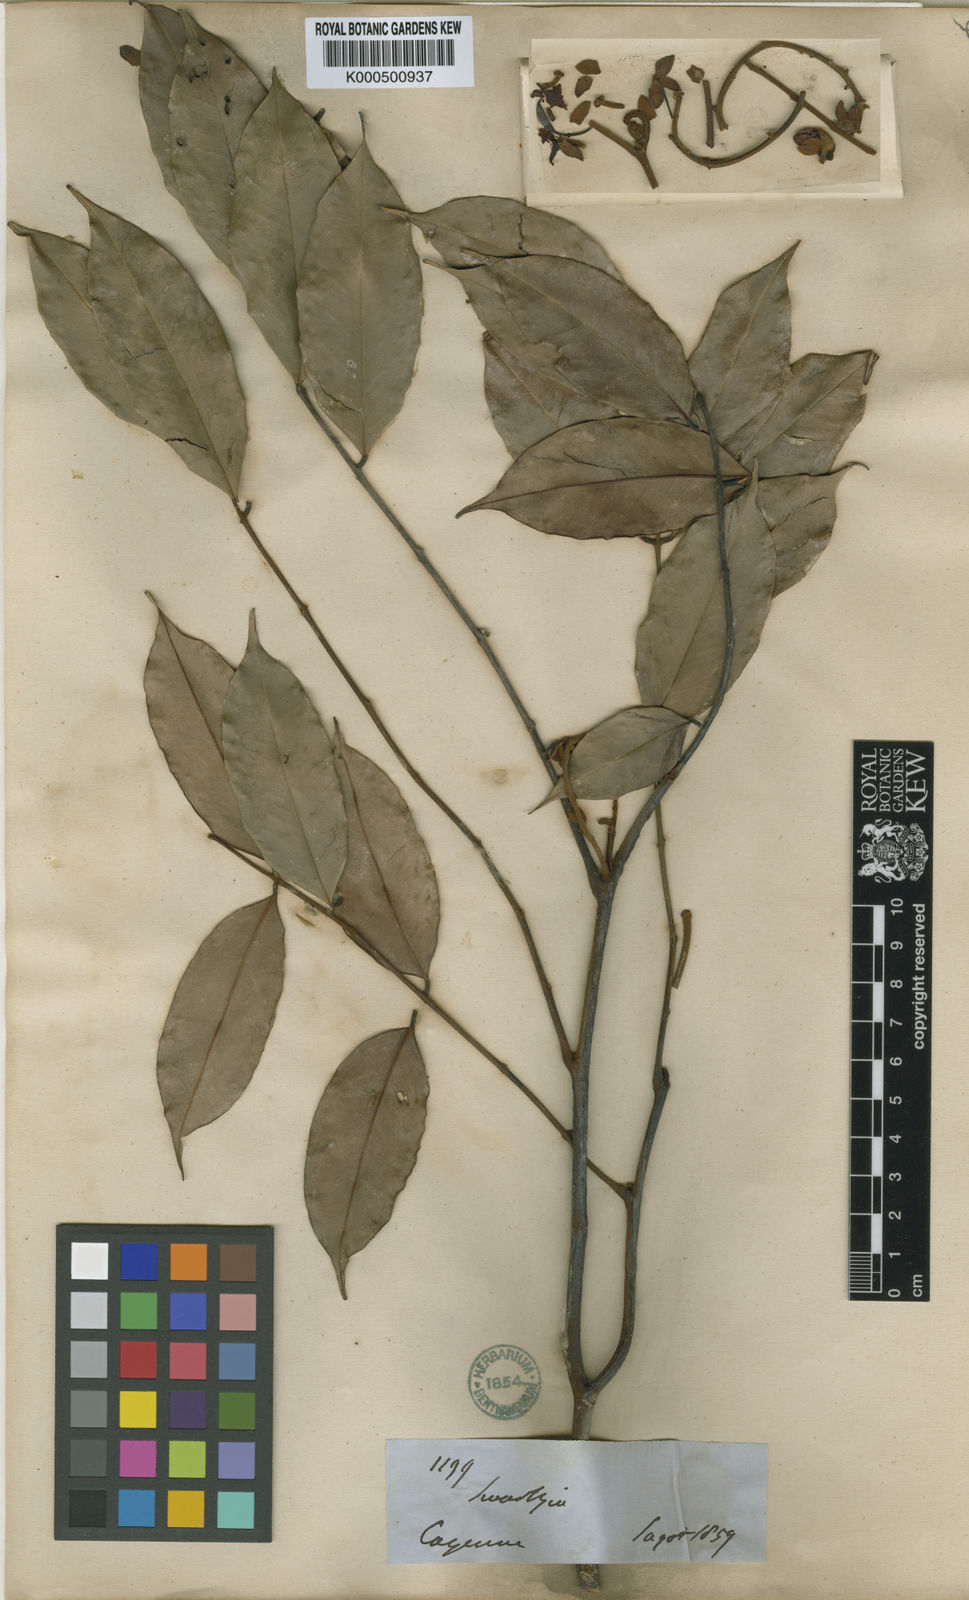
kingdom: Plantae
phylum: Tracheophyta
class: Magnoliopsida
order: Fabales
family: Fabaceae
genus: Swartzia
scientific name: Swartzia polyphylla
